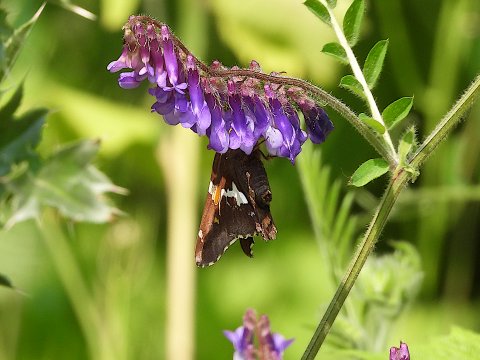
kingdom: Animalia
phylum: Arthropoda
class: Insecta
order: Lepidoptera
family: Hesperiidae
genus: Epargyreus
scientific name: Epargyreus clarus
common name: Silver-spotted Skipper
